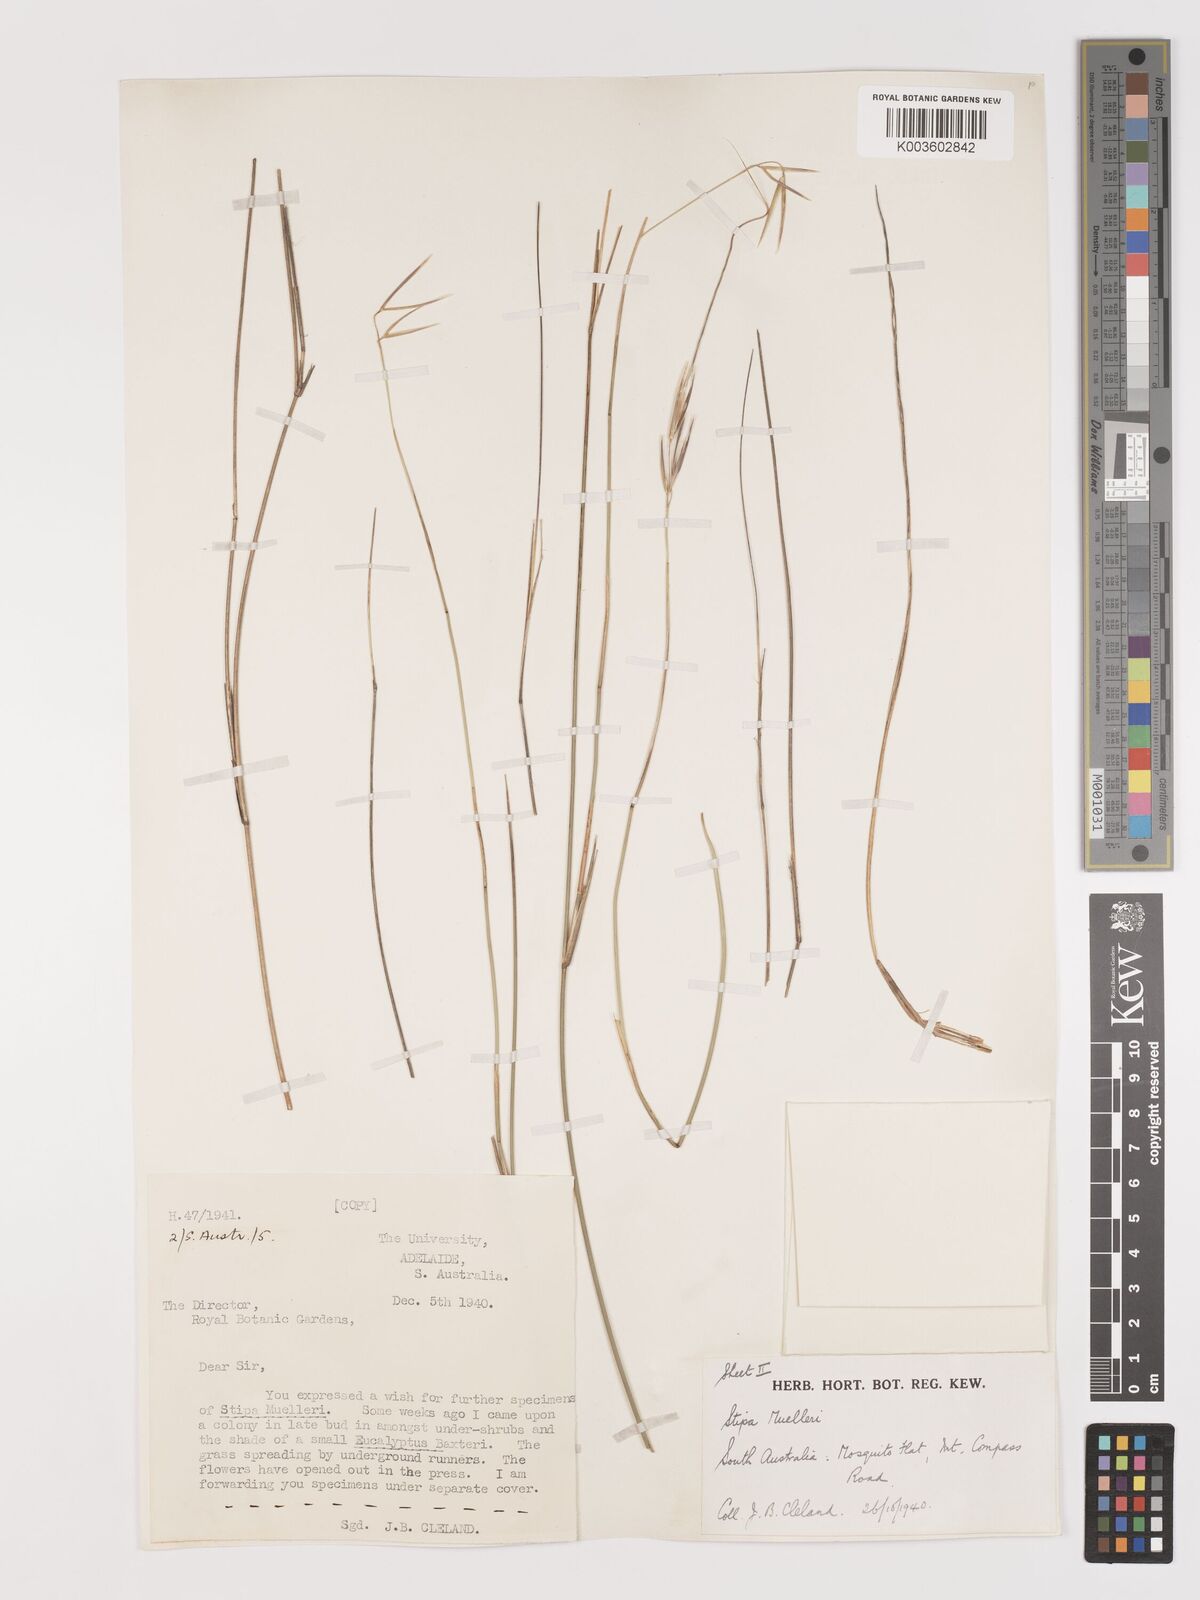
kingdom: Plantae
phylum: Tracheophyta
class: Liliopsida
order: Poales
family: Poaceae
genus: Austrostipa
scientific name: Austrostipa muelleri
